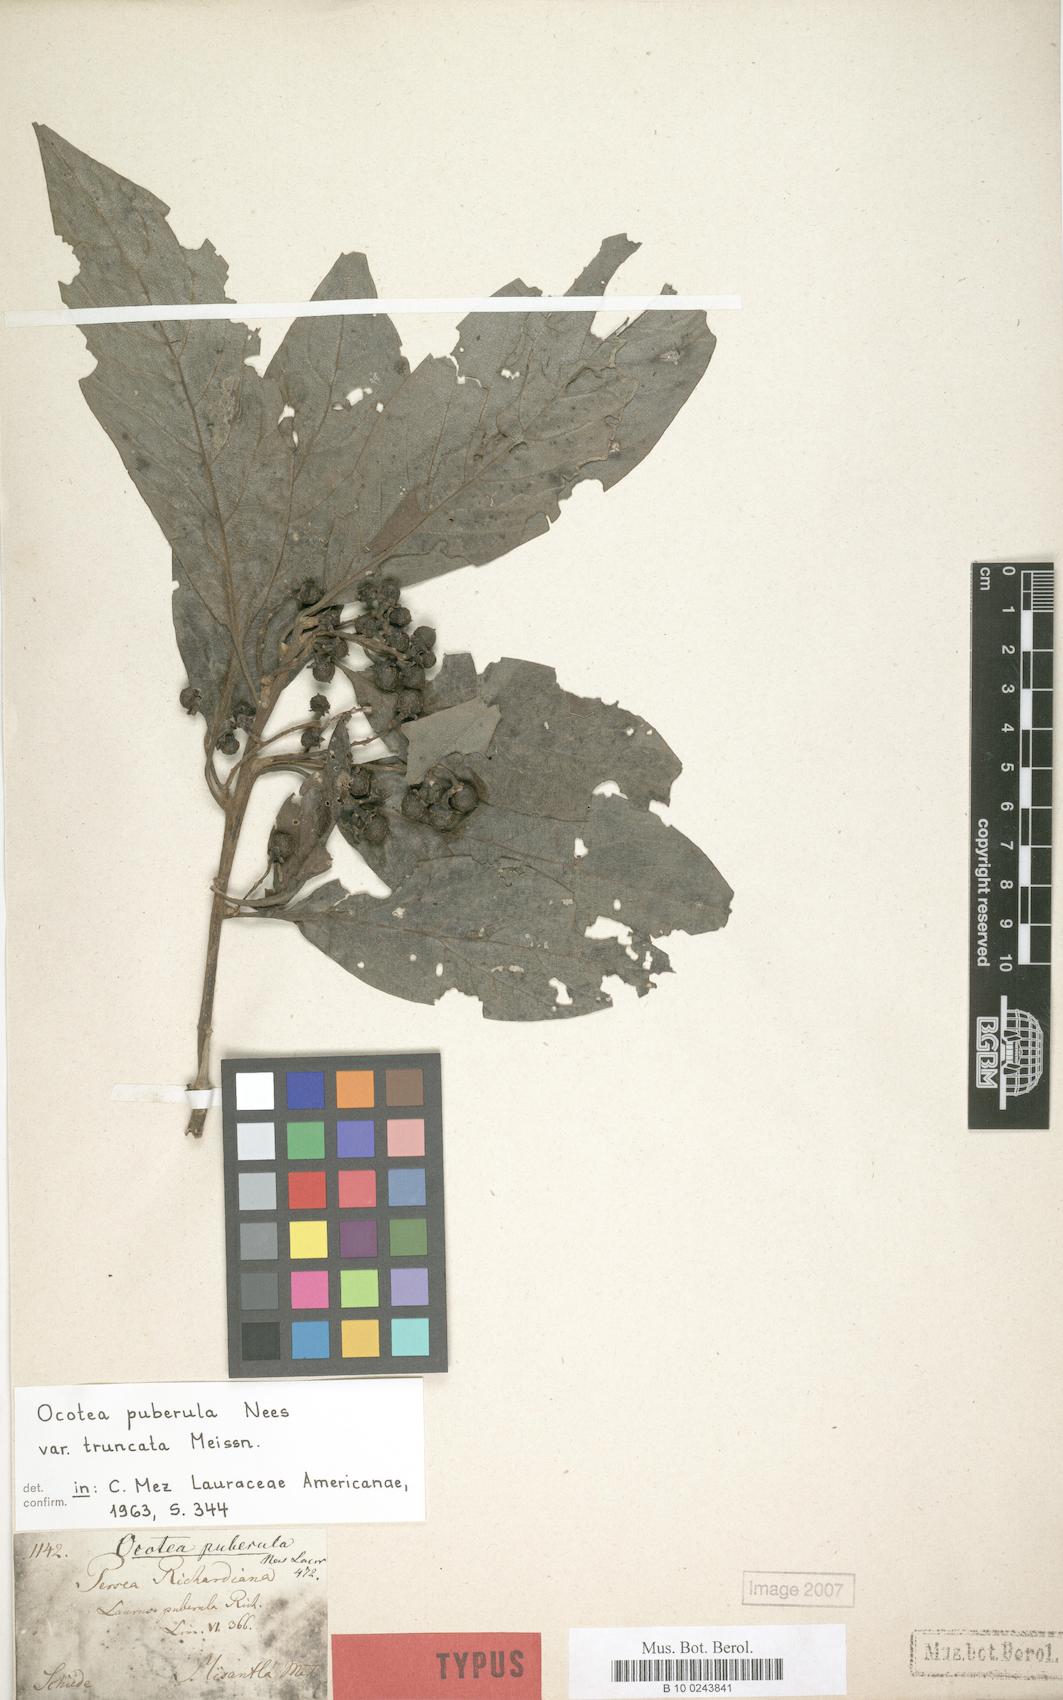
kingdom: Plantae
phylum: Tracheophyta
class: Magnoliopsida
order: Laurales
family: Lauraceae
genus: Ocotea
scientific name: Ocotea puberula
